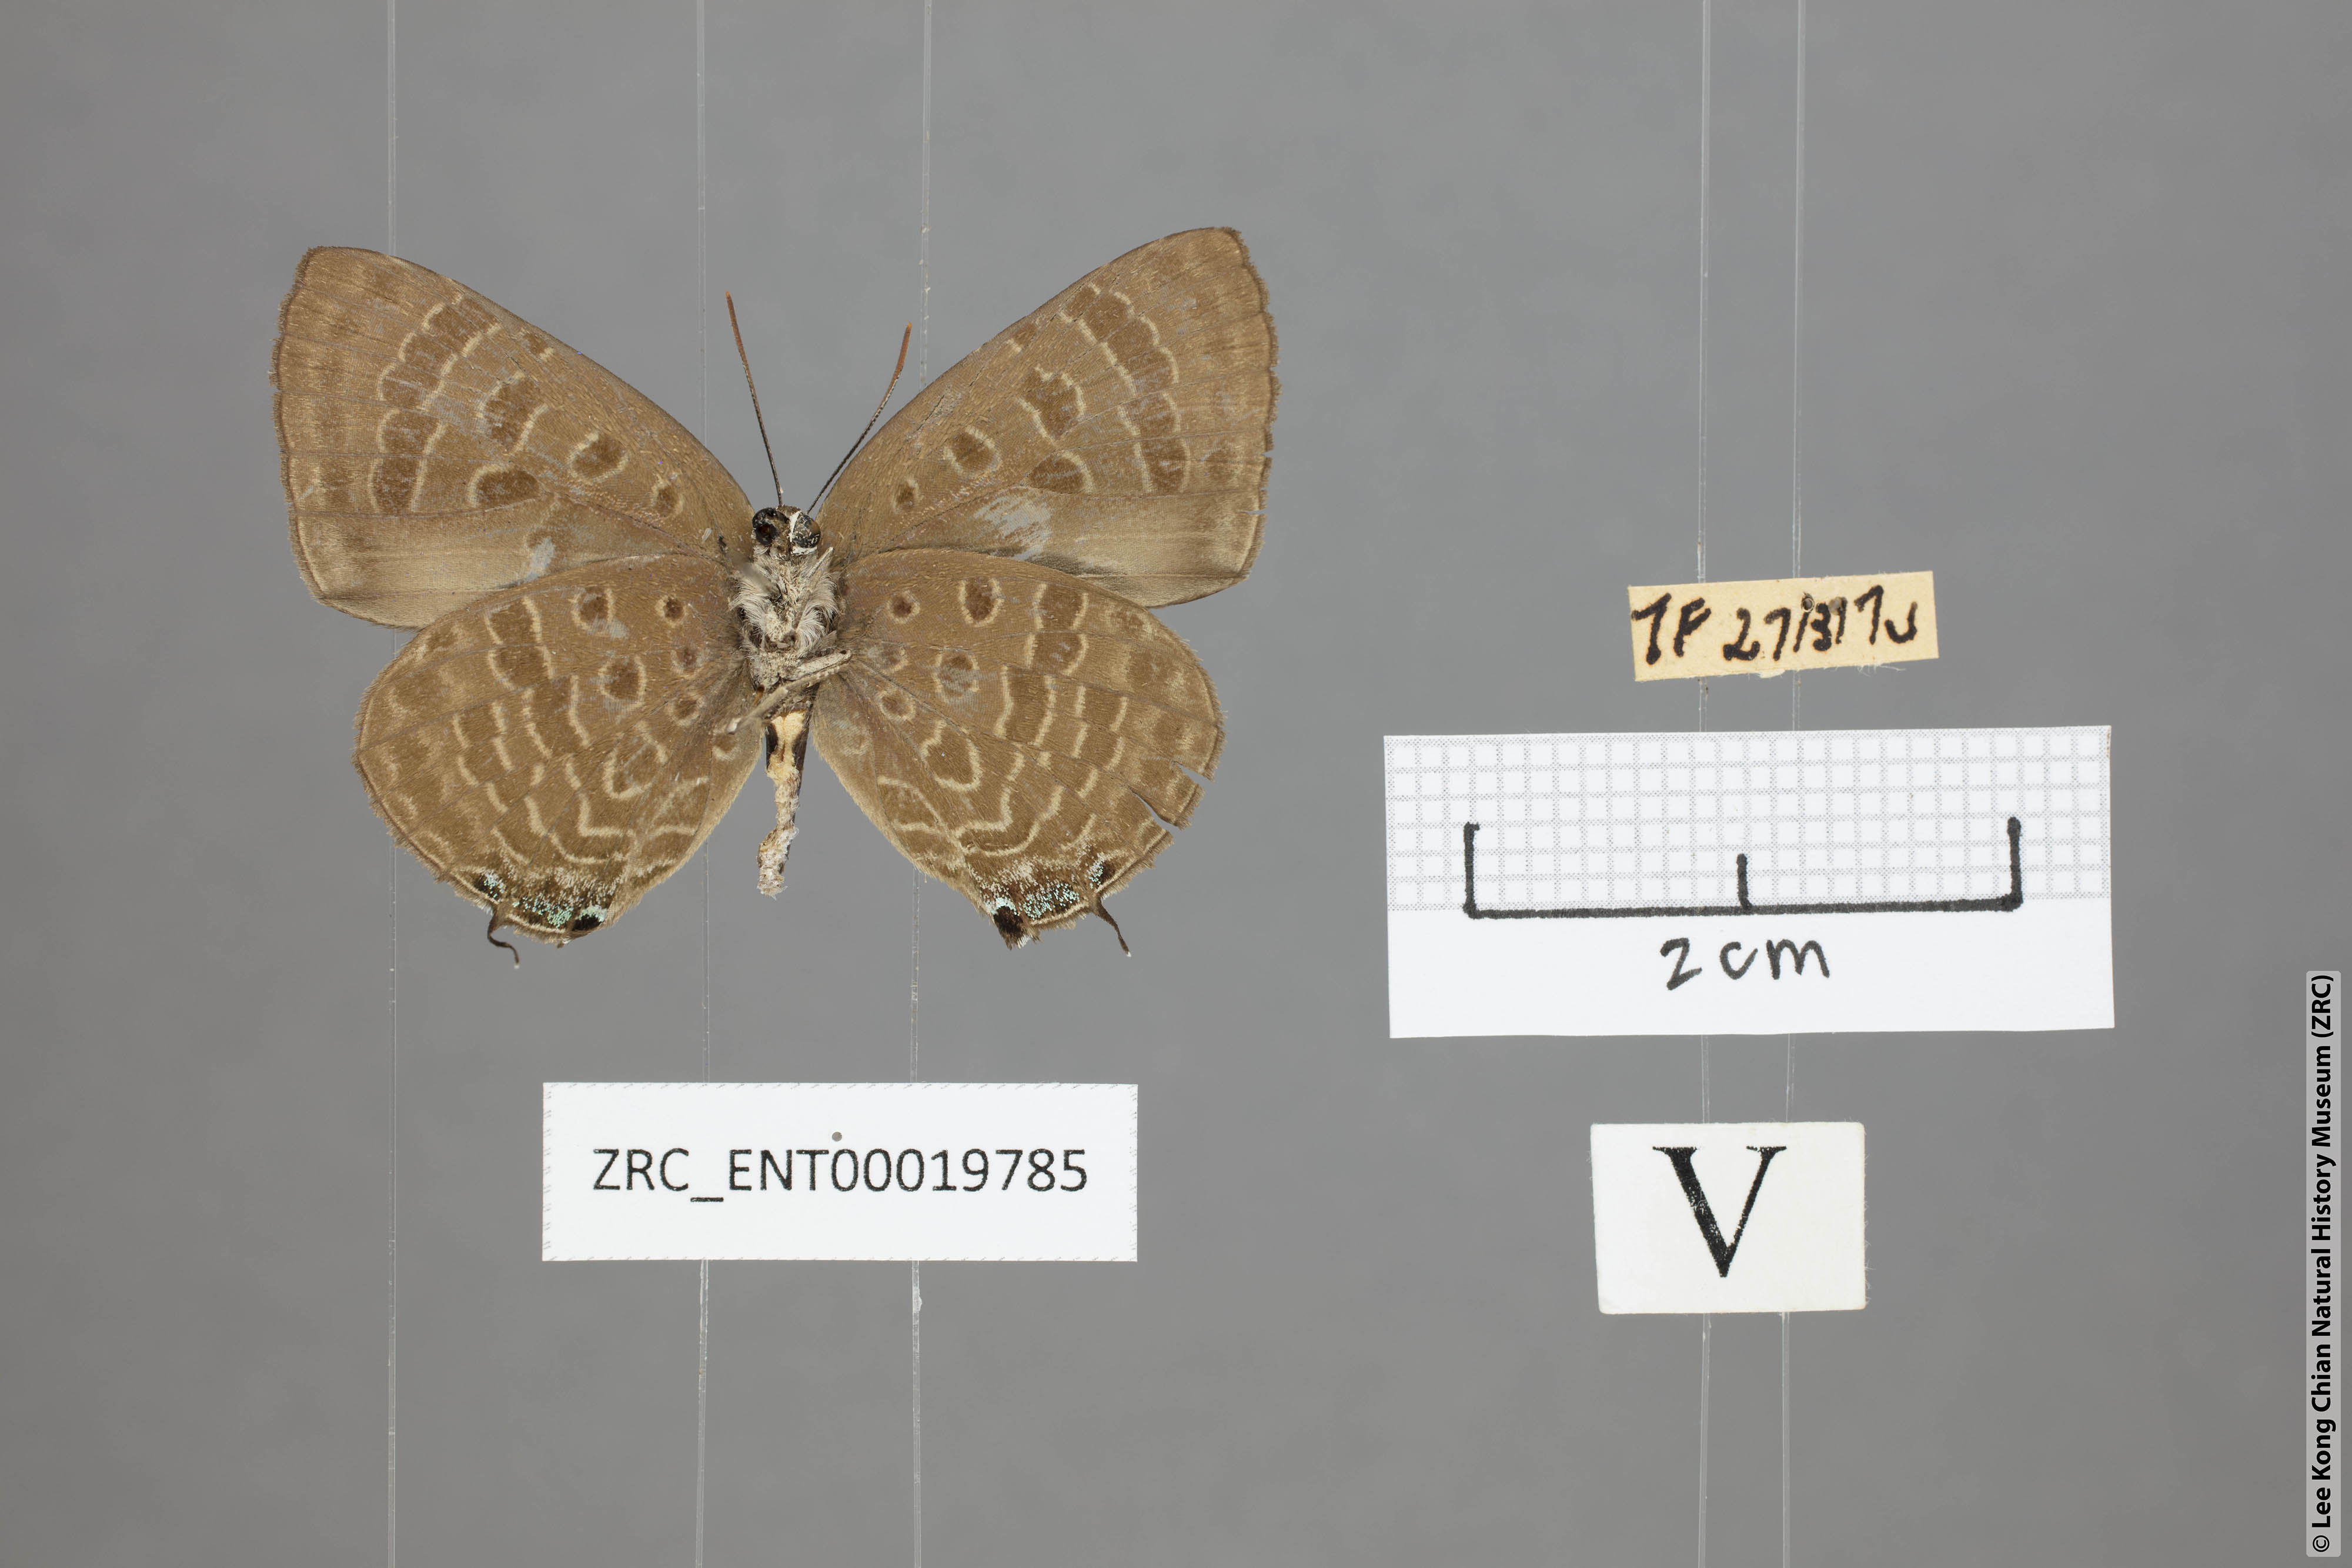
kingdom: Animalia
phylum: Arthropoda
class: Insecta
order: Lepidoptera
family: Lycaenidae
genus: Arhopala
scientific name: Arhopala phaenops
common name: Sumatran oakblue
